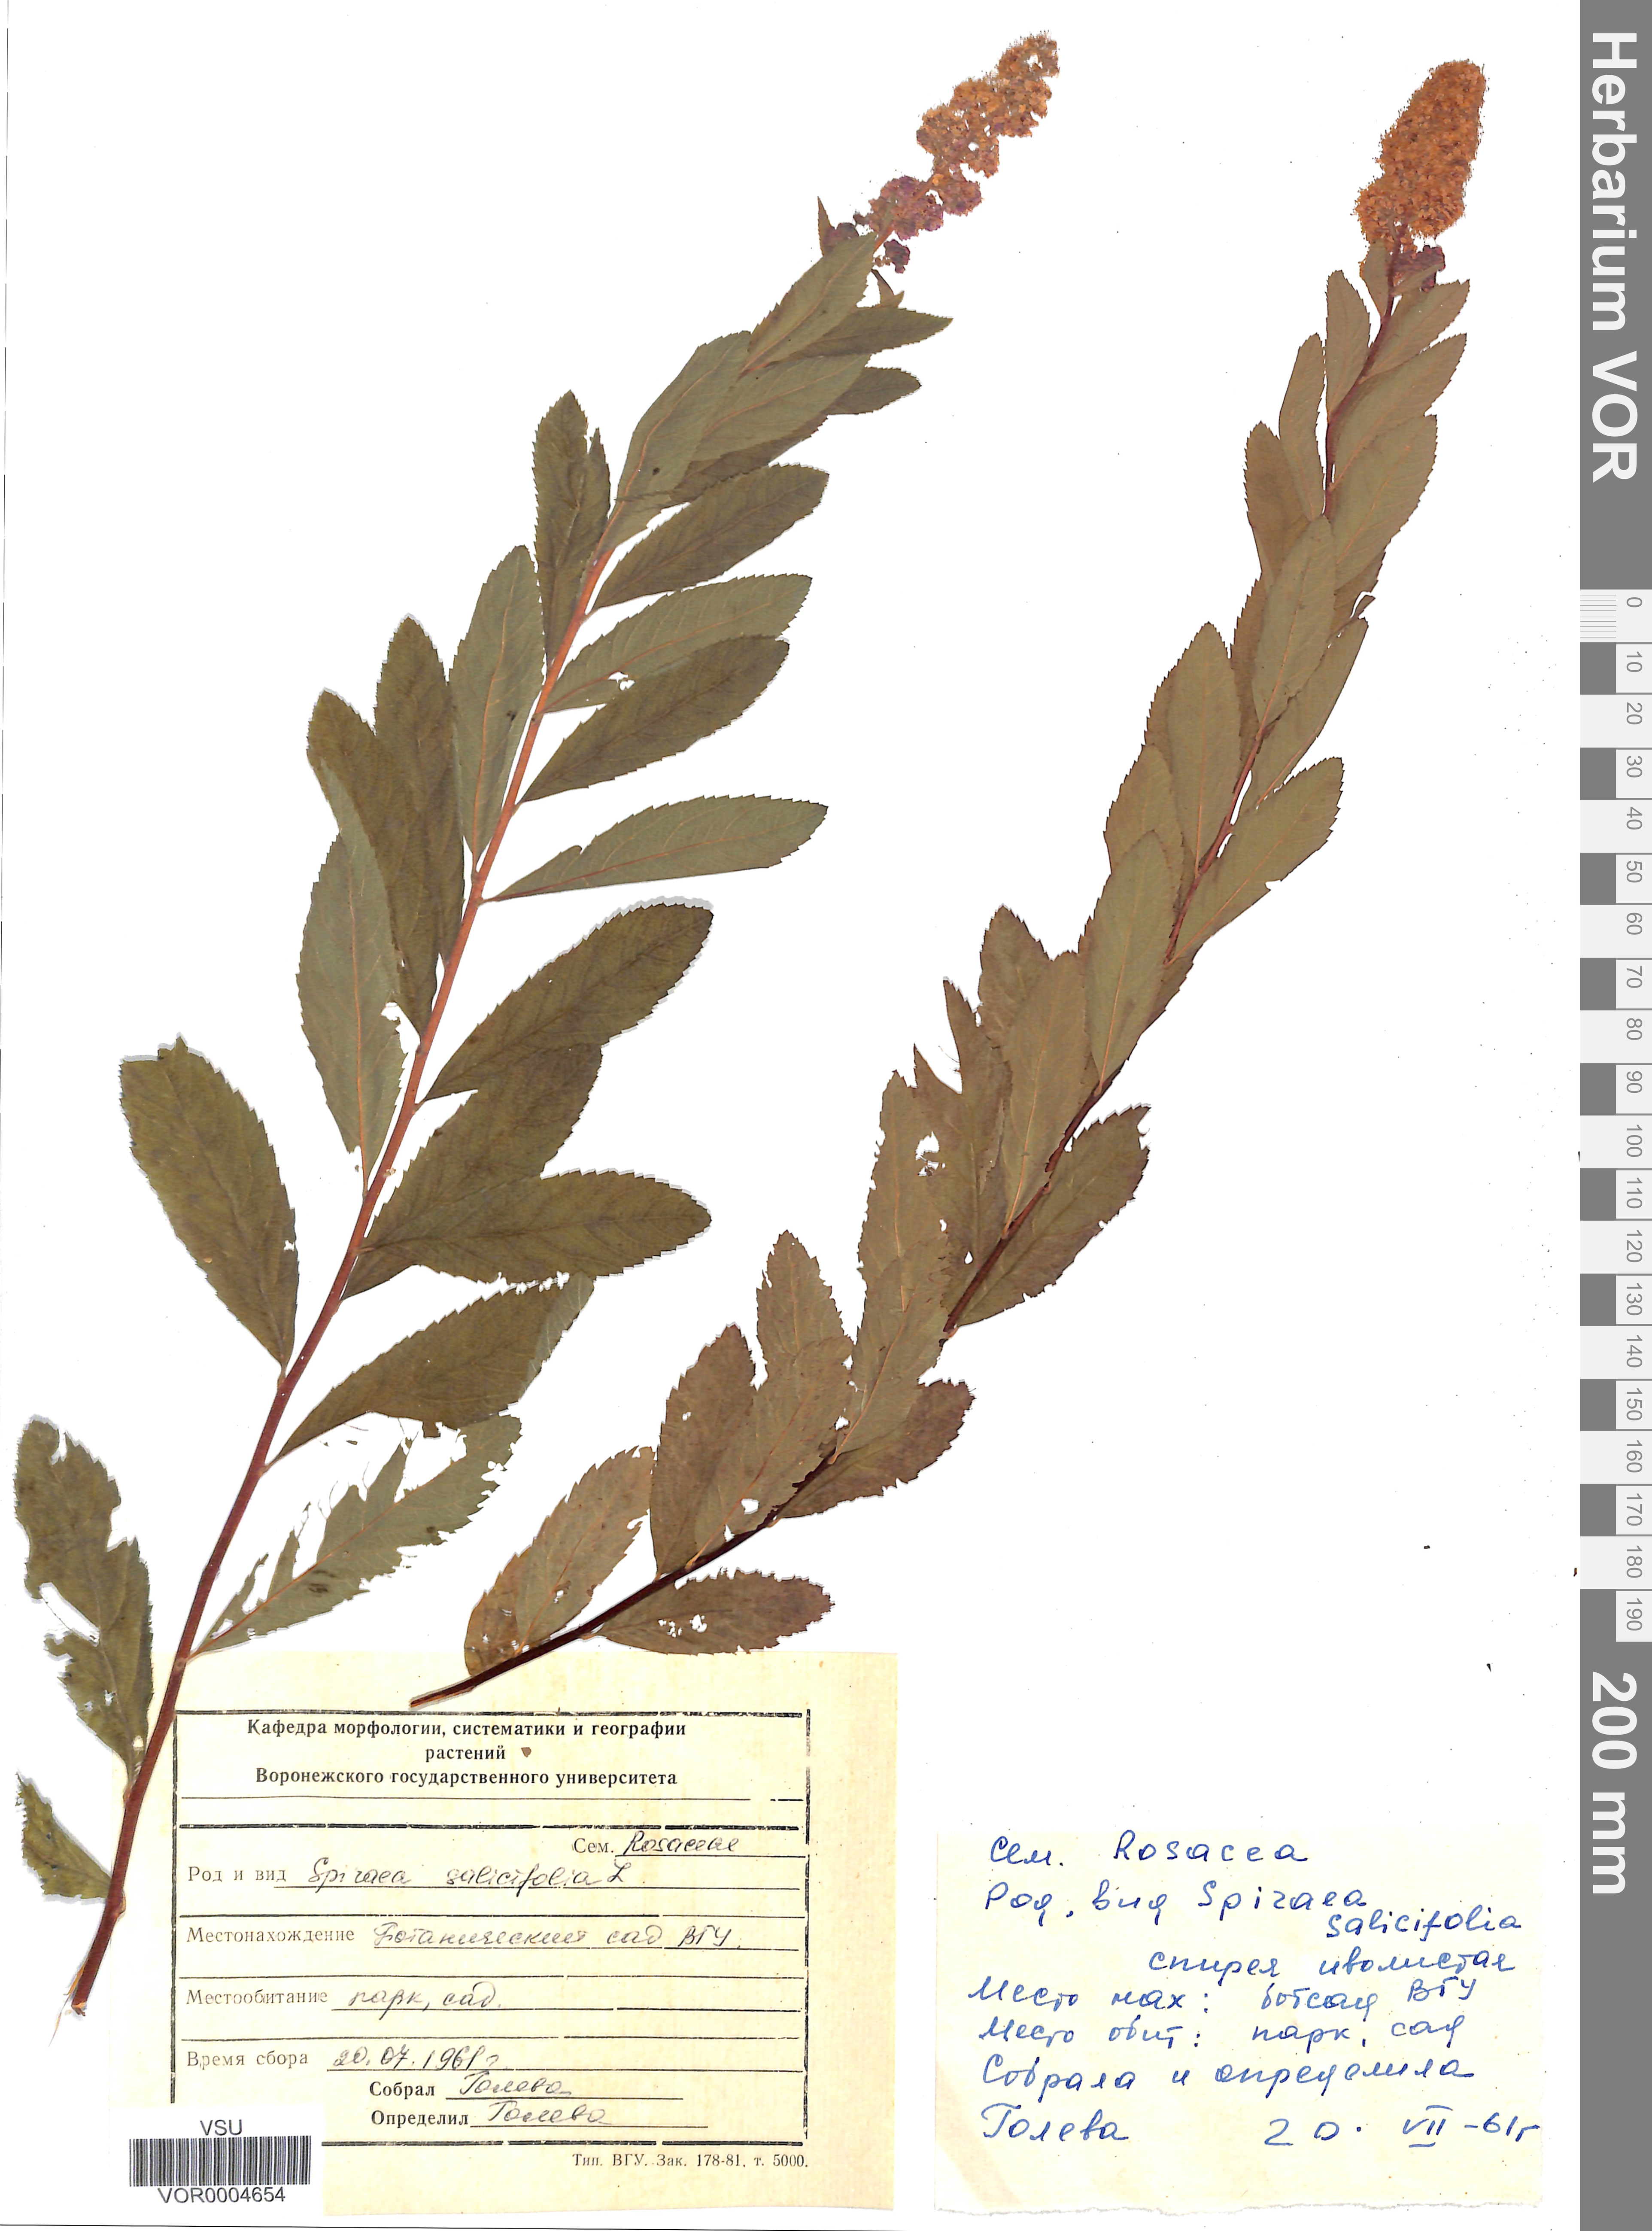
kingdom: Plantae
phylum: Tracheophyta
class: Magnoliopsida
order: Rosales
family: Rosaceae
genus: Spiraea
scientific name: Spiraea salicifolia
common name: Bridewort
